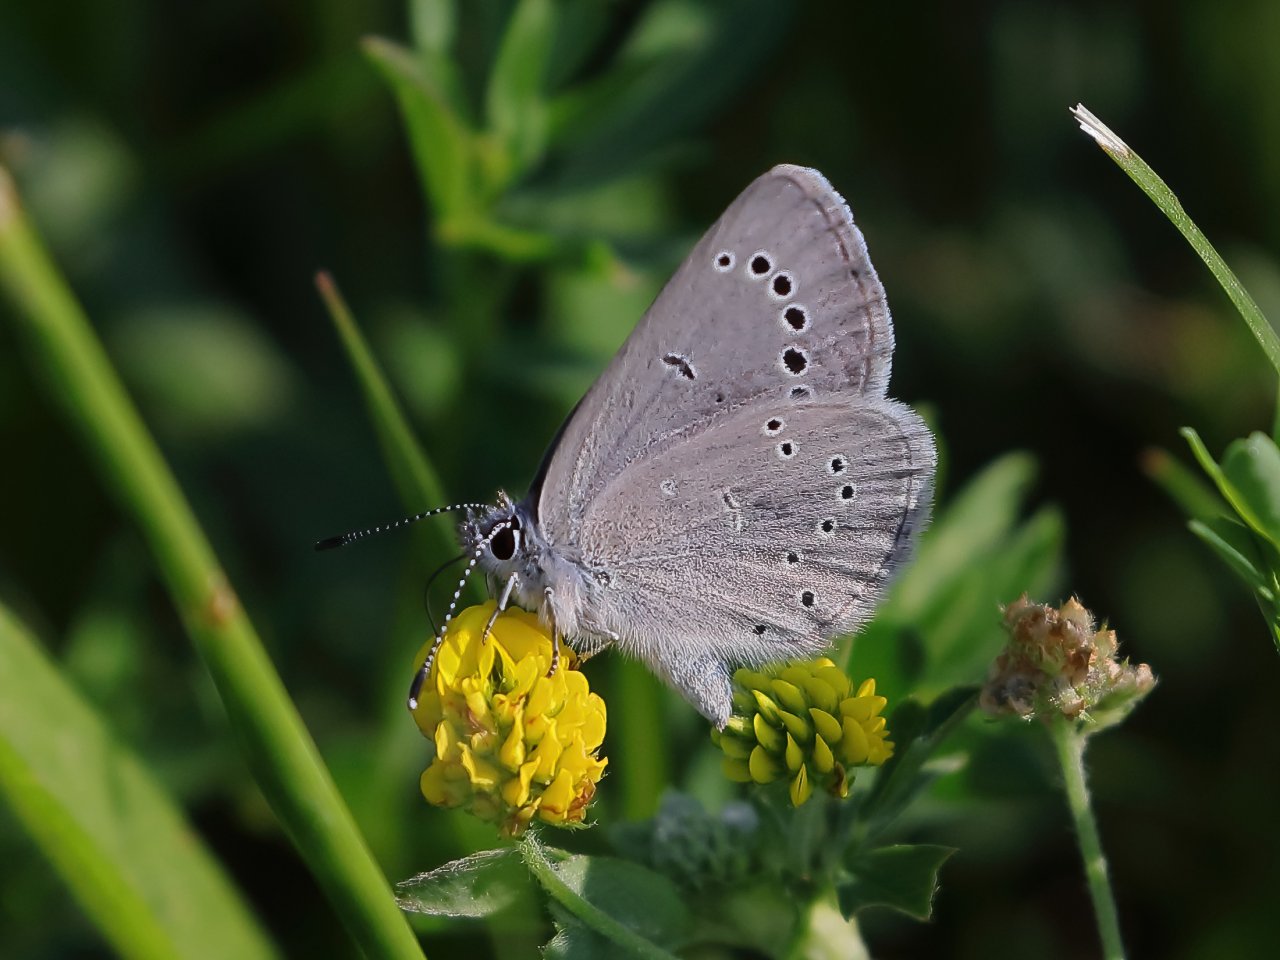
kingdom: Animalia
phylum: Arthropoda
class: Insecta
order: Lepidoptera
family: Lycaenidae
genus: Glaucopsyche
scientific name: Glaucopsyche lygdamus
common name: Silvery Blue
